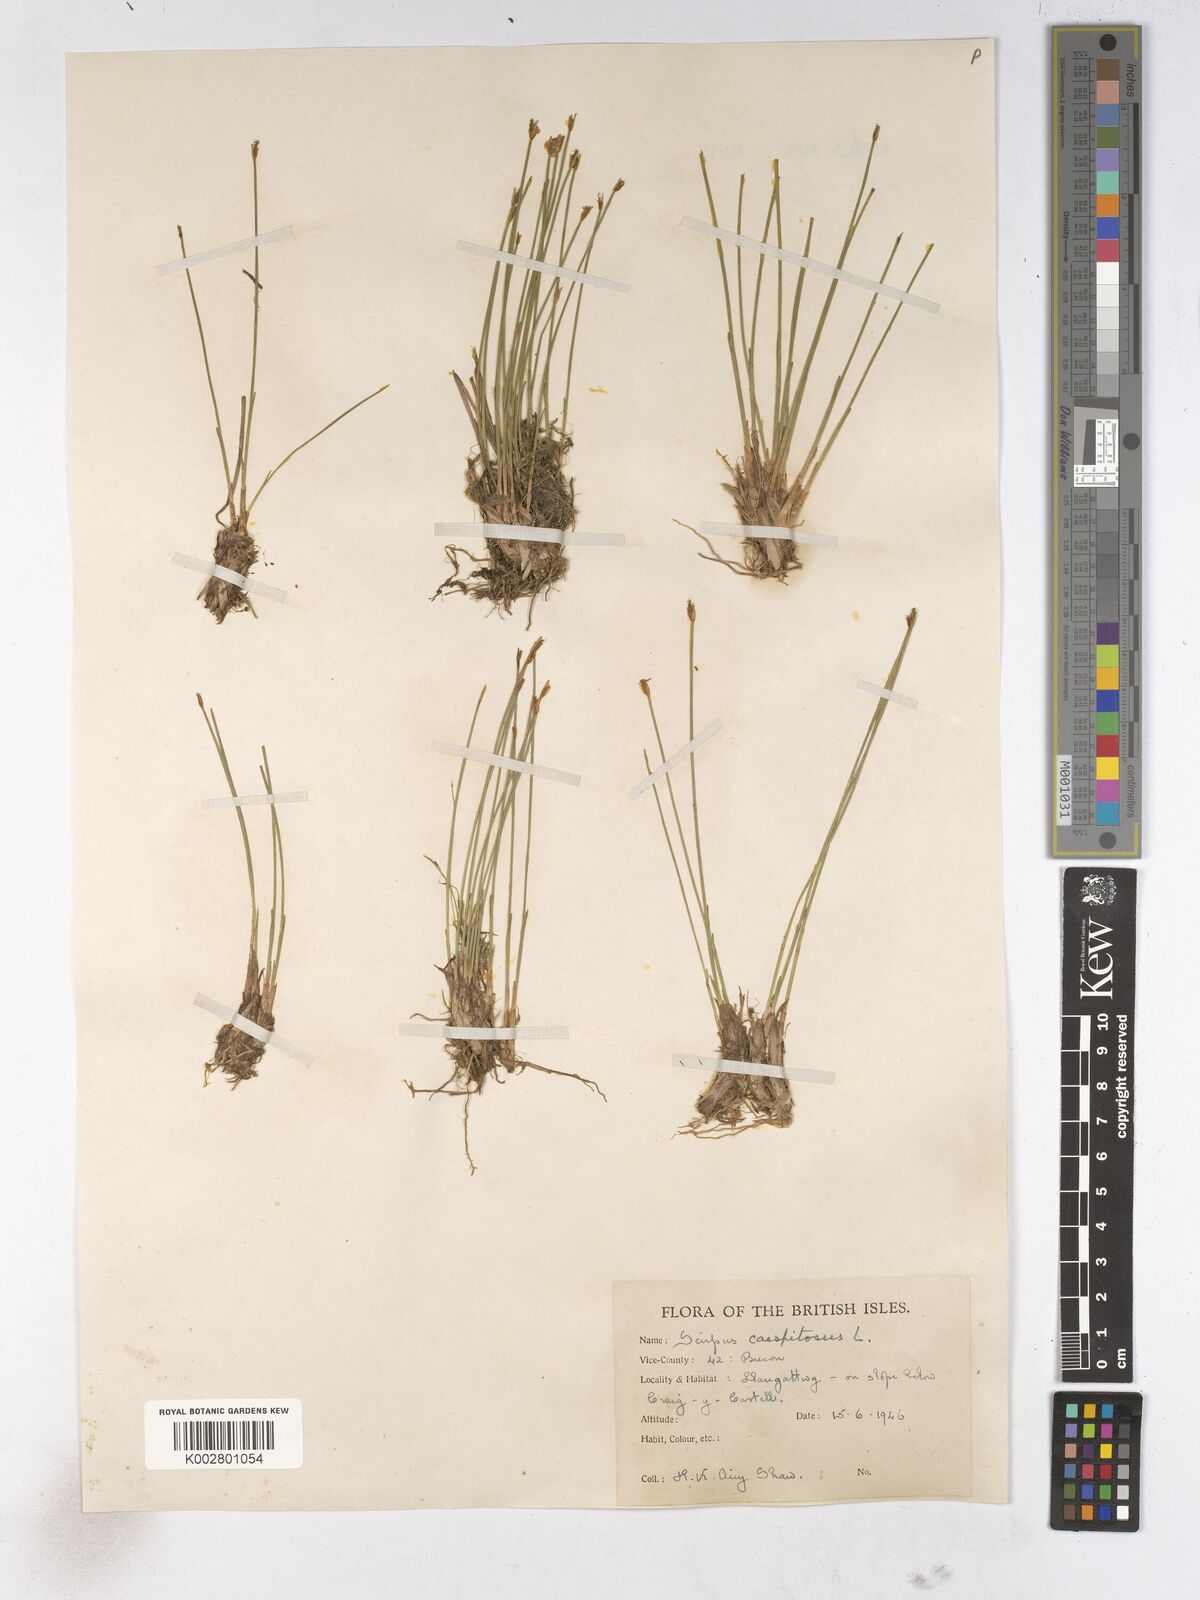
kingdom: Plantae
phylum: Tracheophyta
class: Liliopsida
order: Poales
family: Cyperaceae
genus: Trichophorum
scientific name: Trichophorum cespitosum
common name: Cespitose bulrush
